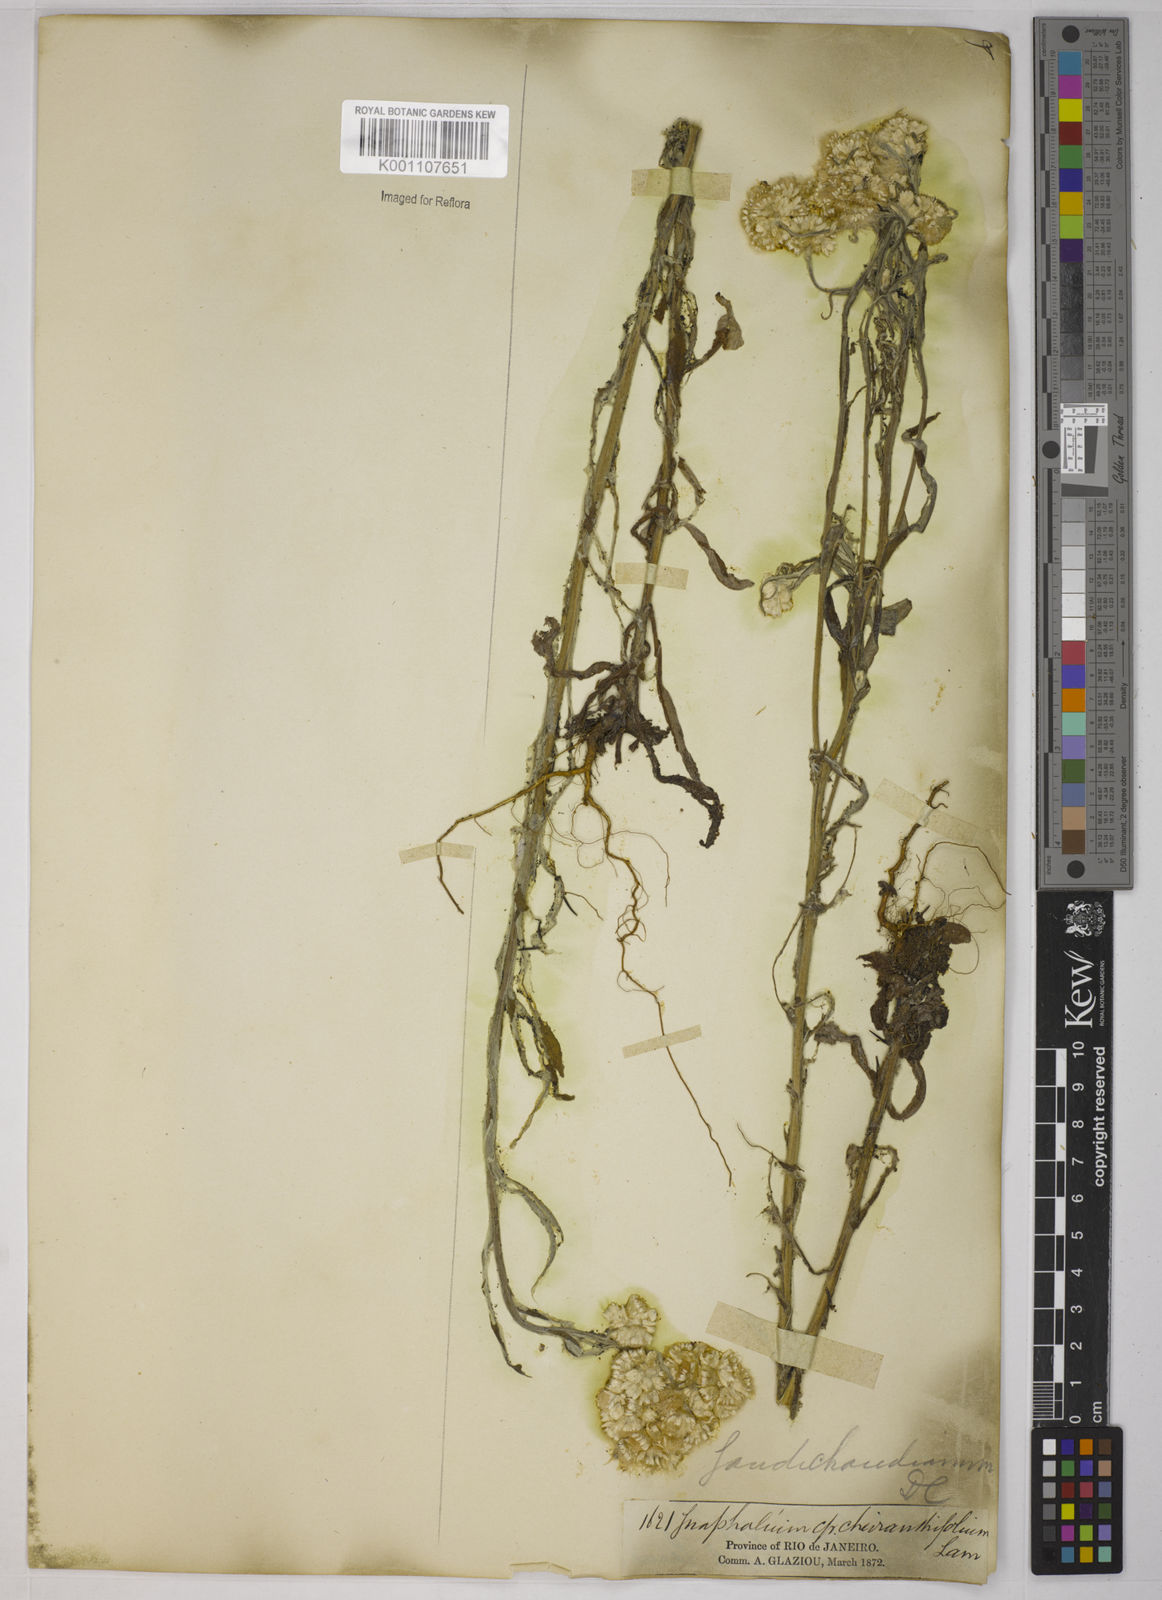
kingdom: Plantae
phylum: Tracheophyta
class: Magnoliopsida
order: Asterales
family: Asteraceae
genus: Pseudognaphalium
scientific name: Pseudognaphalium cheiranthifolium
